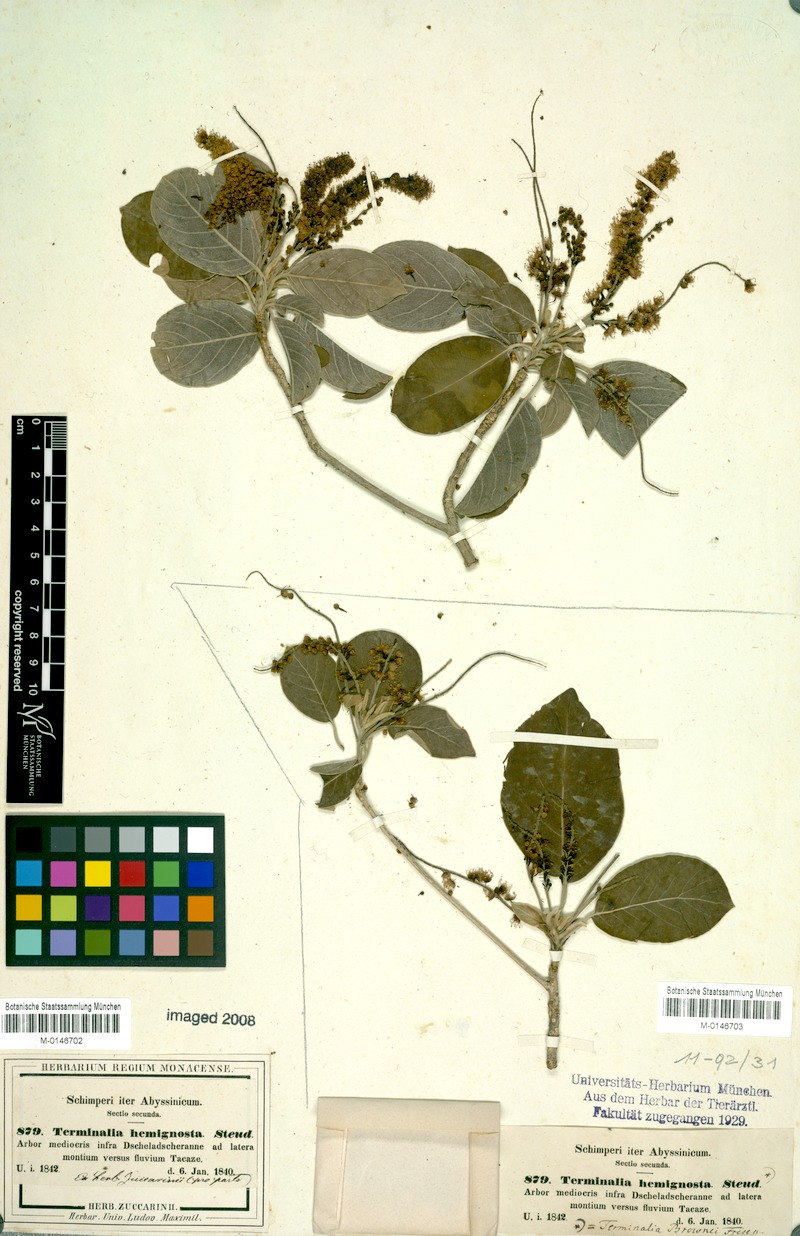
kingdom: Plantae
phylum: Tracheophyta
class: Magnoliopsida
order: Myrtales
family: Combretaceae
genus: Terminalia
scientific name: Terminalia brownii
